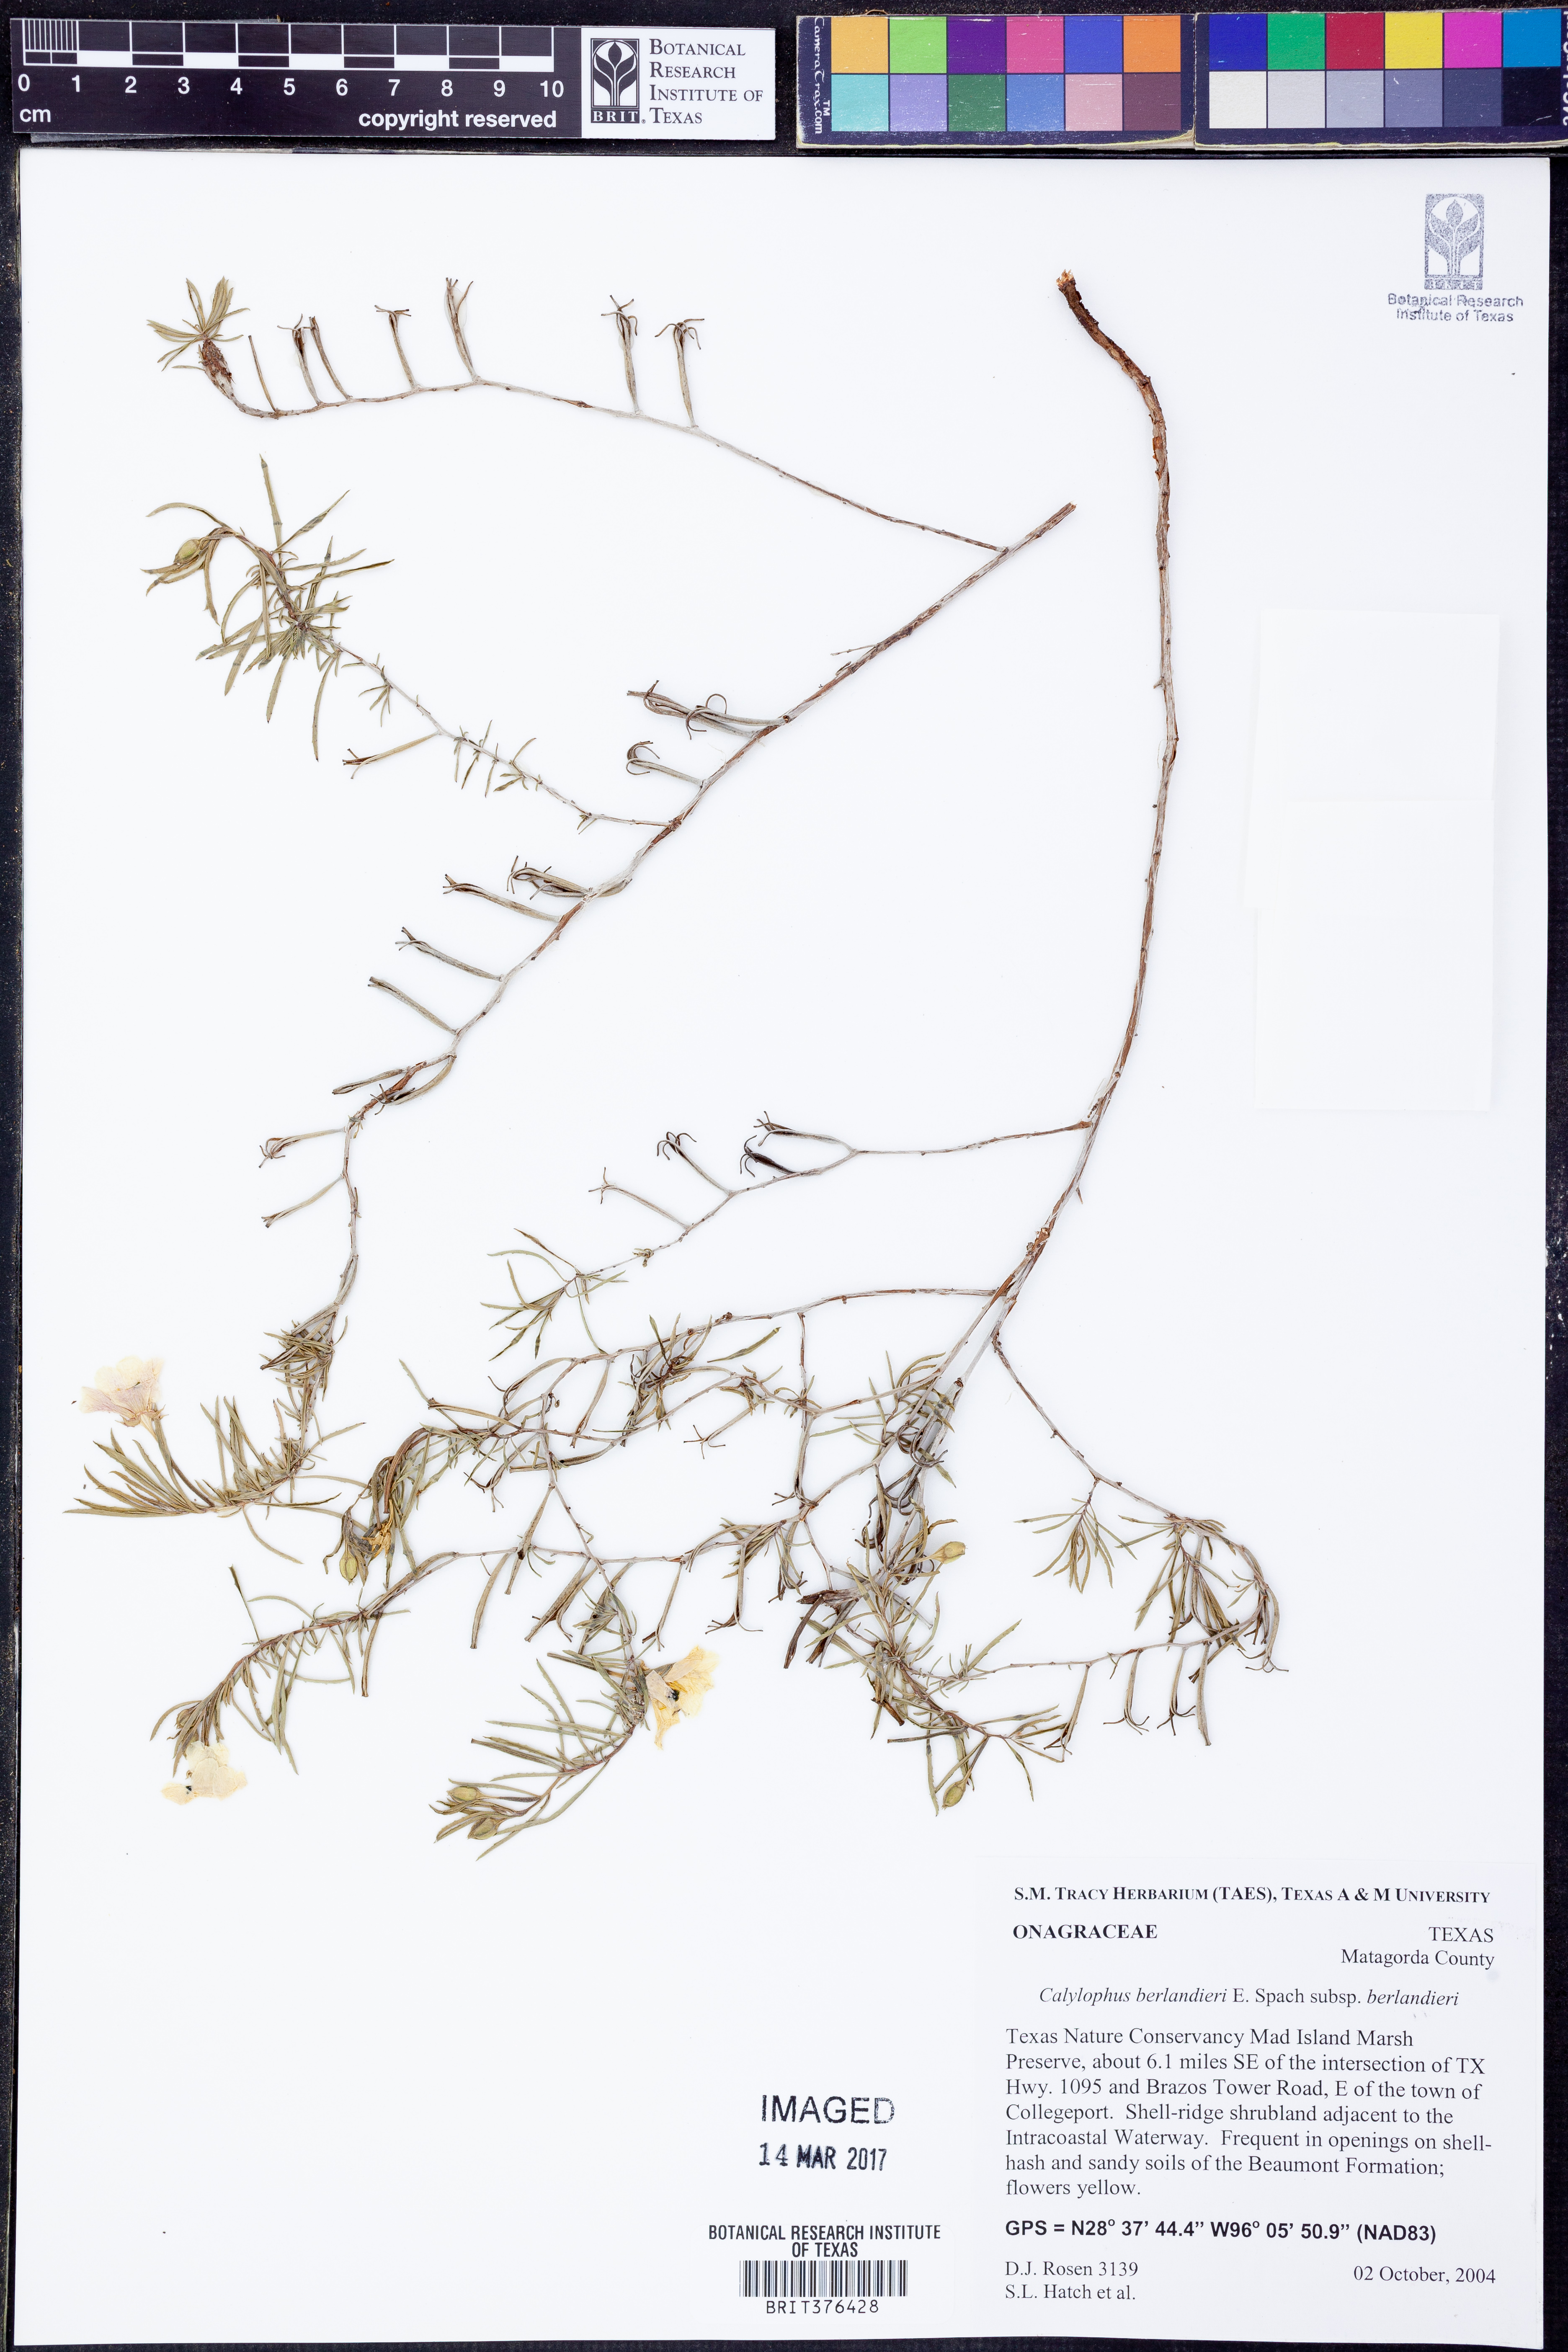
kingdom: Plantae
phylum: Tracheophyta
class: Magnoliopsida
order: Myrtales
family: Onagraceae
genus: Oenothera
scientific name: Oenothera capillifolia
